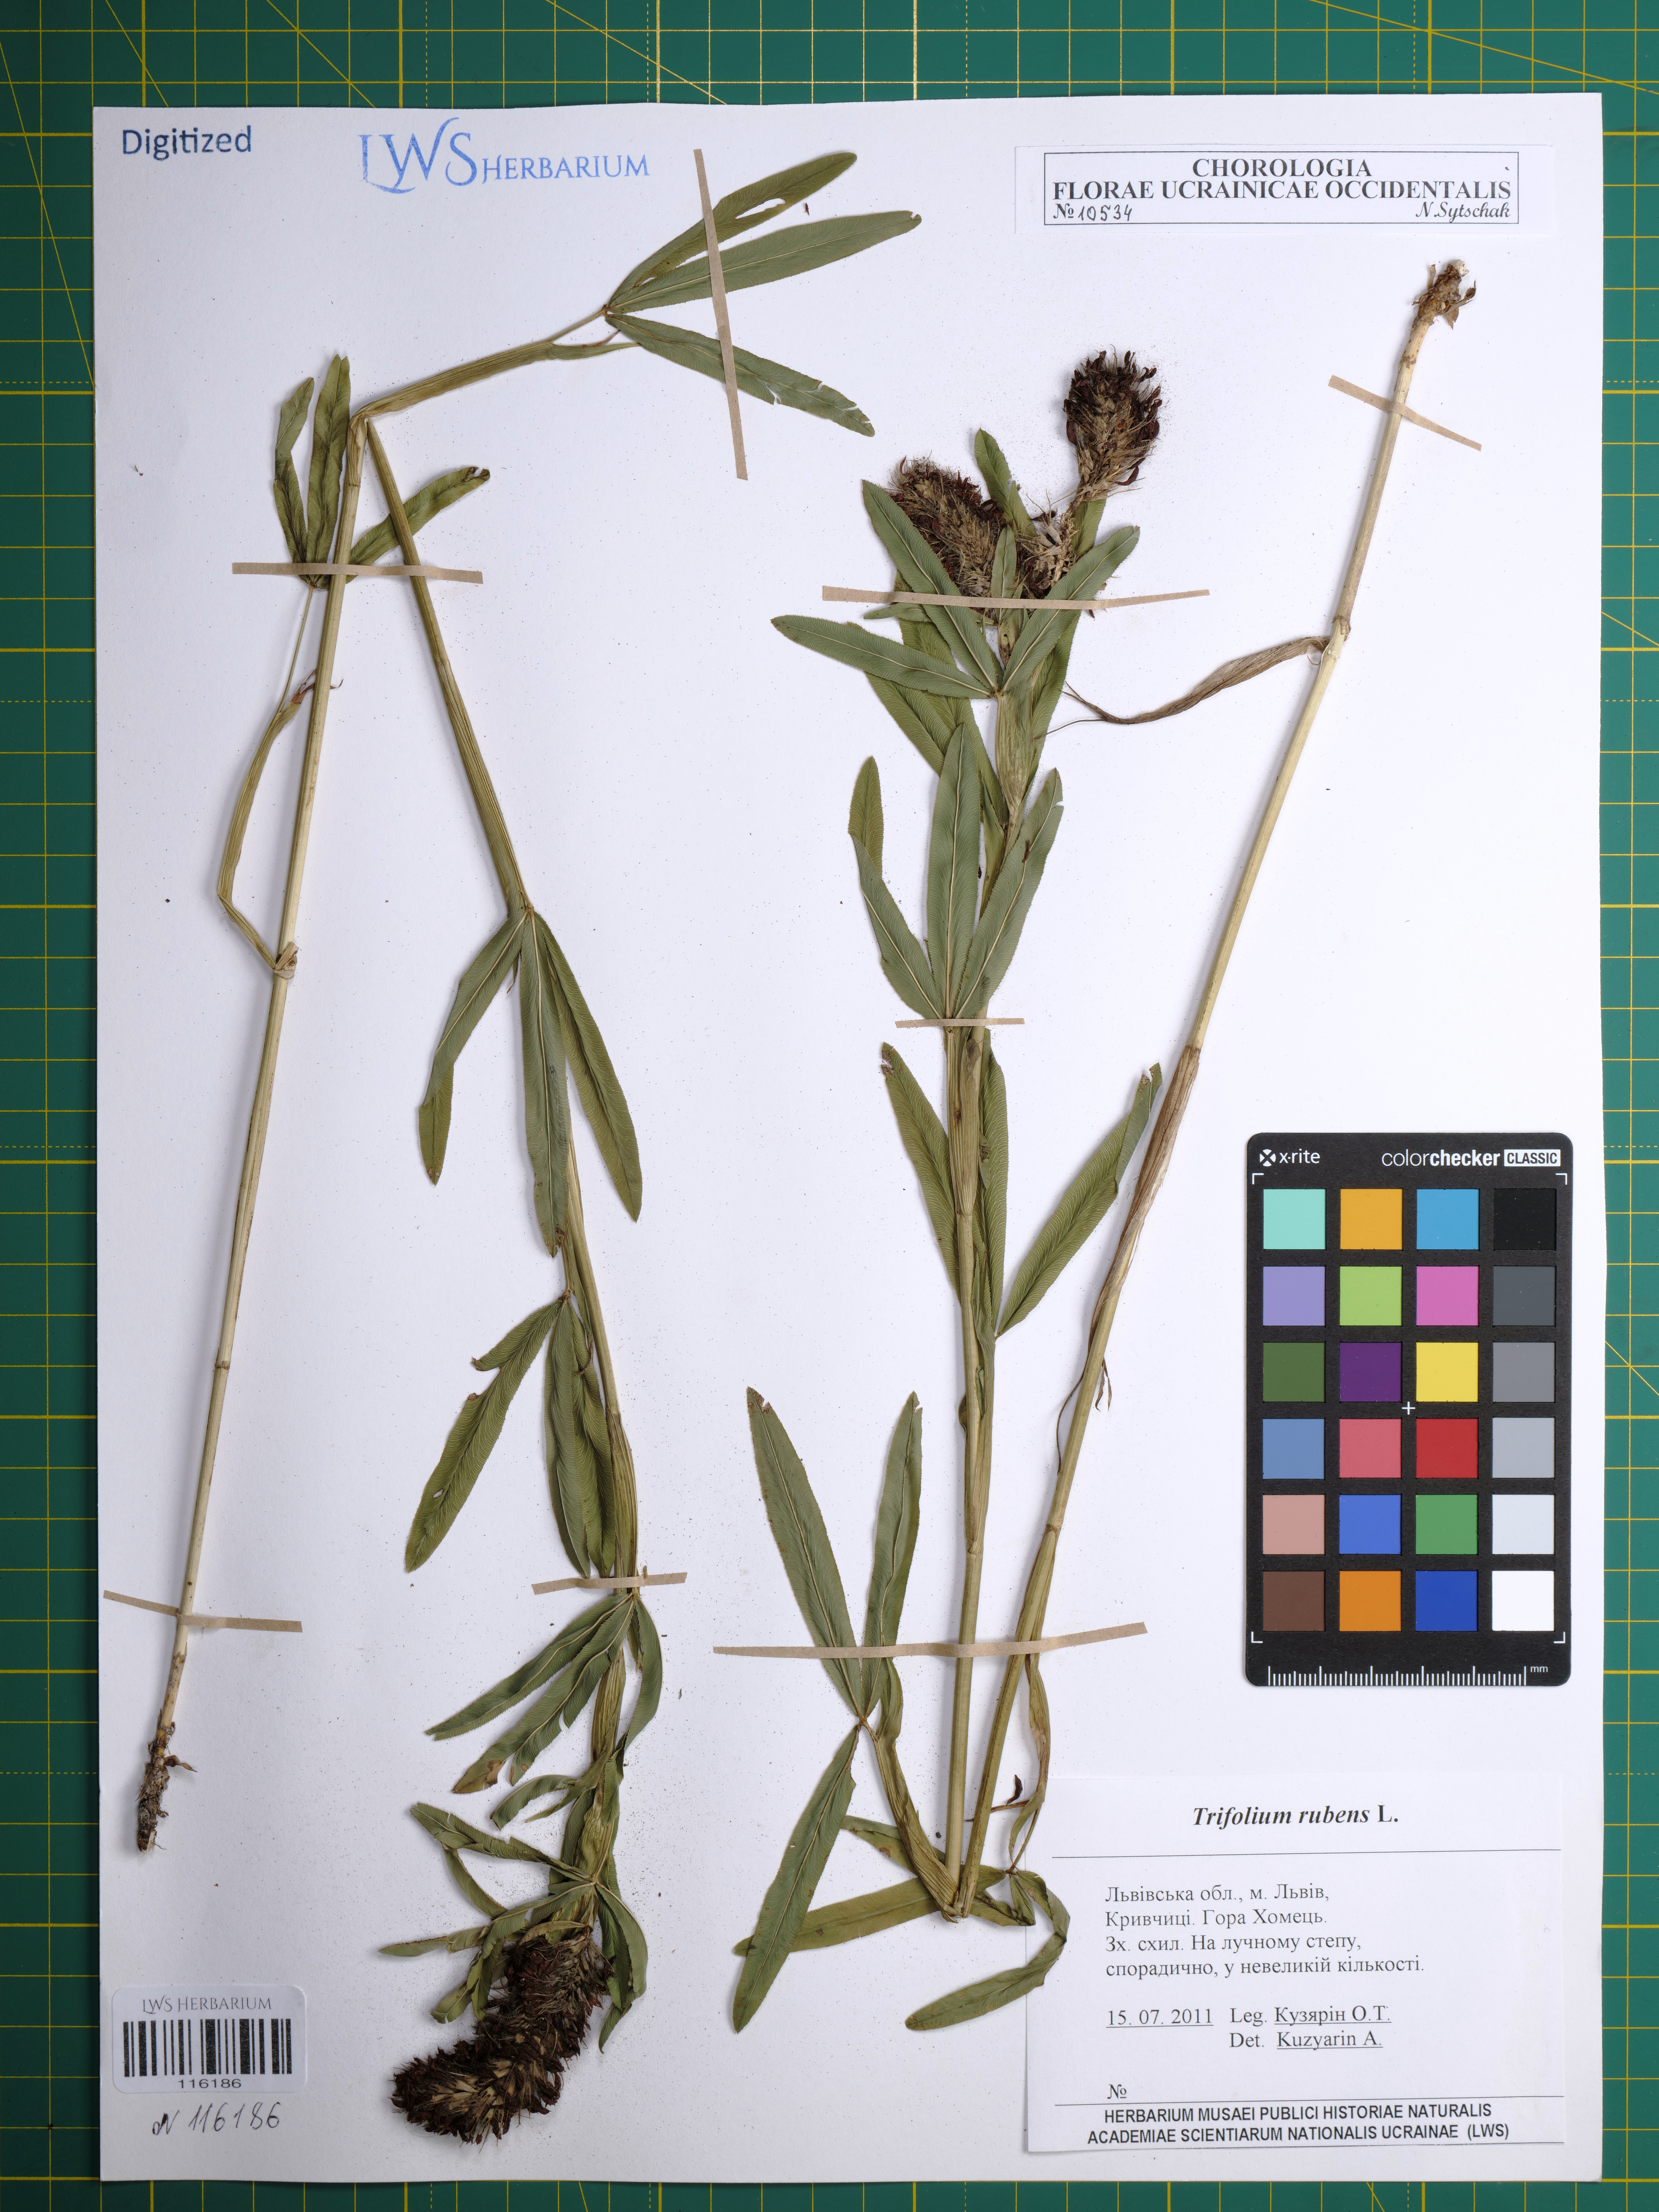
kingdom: Plantae
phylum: Tracheophyta
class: Magnoliopsida
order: Fabales
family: Fabaceae
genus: Trifolium
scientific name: Trifolium rubens
